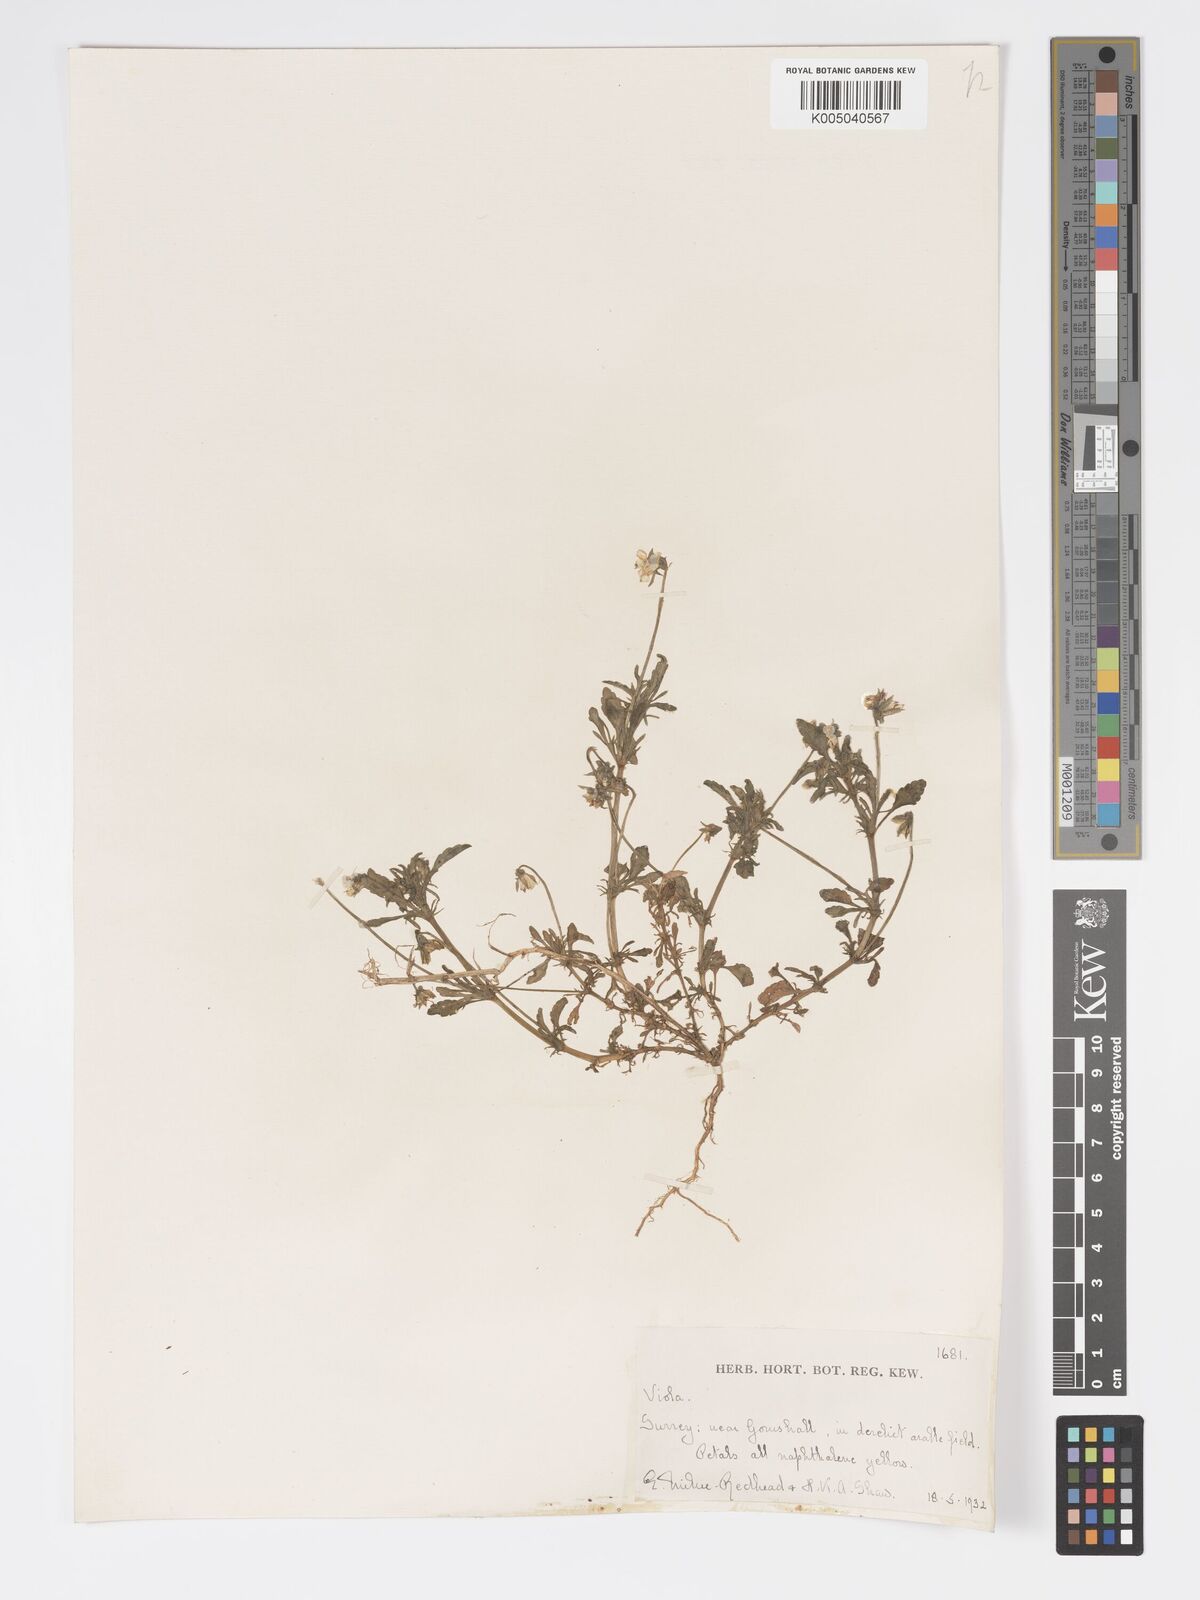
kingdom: Plantae
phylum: Tracheophyta
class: Magnoliopsida
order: Malpighiales
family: Violaceae
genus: Viola
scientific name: Viola
